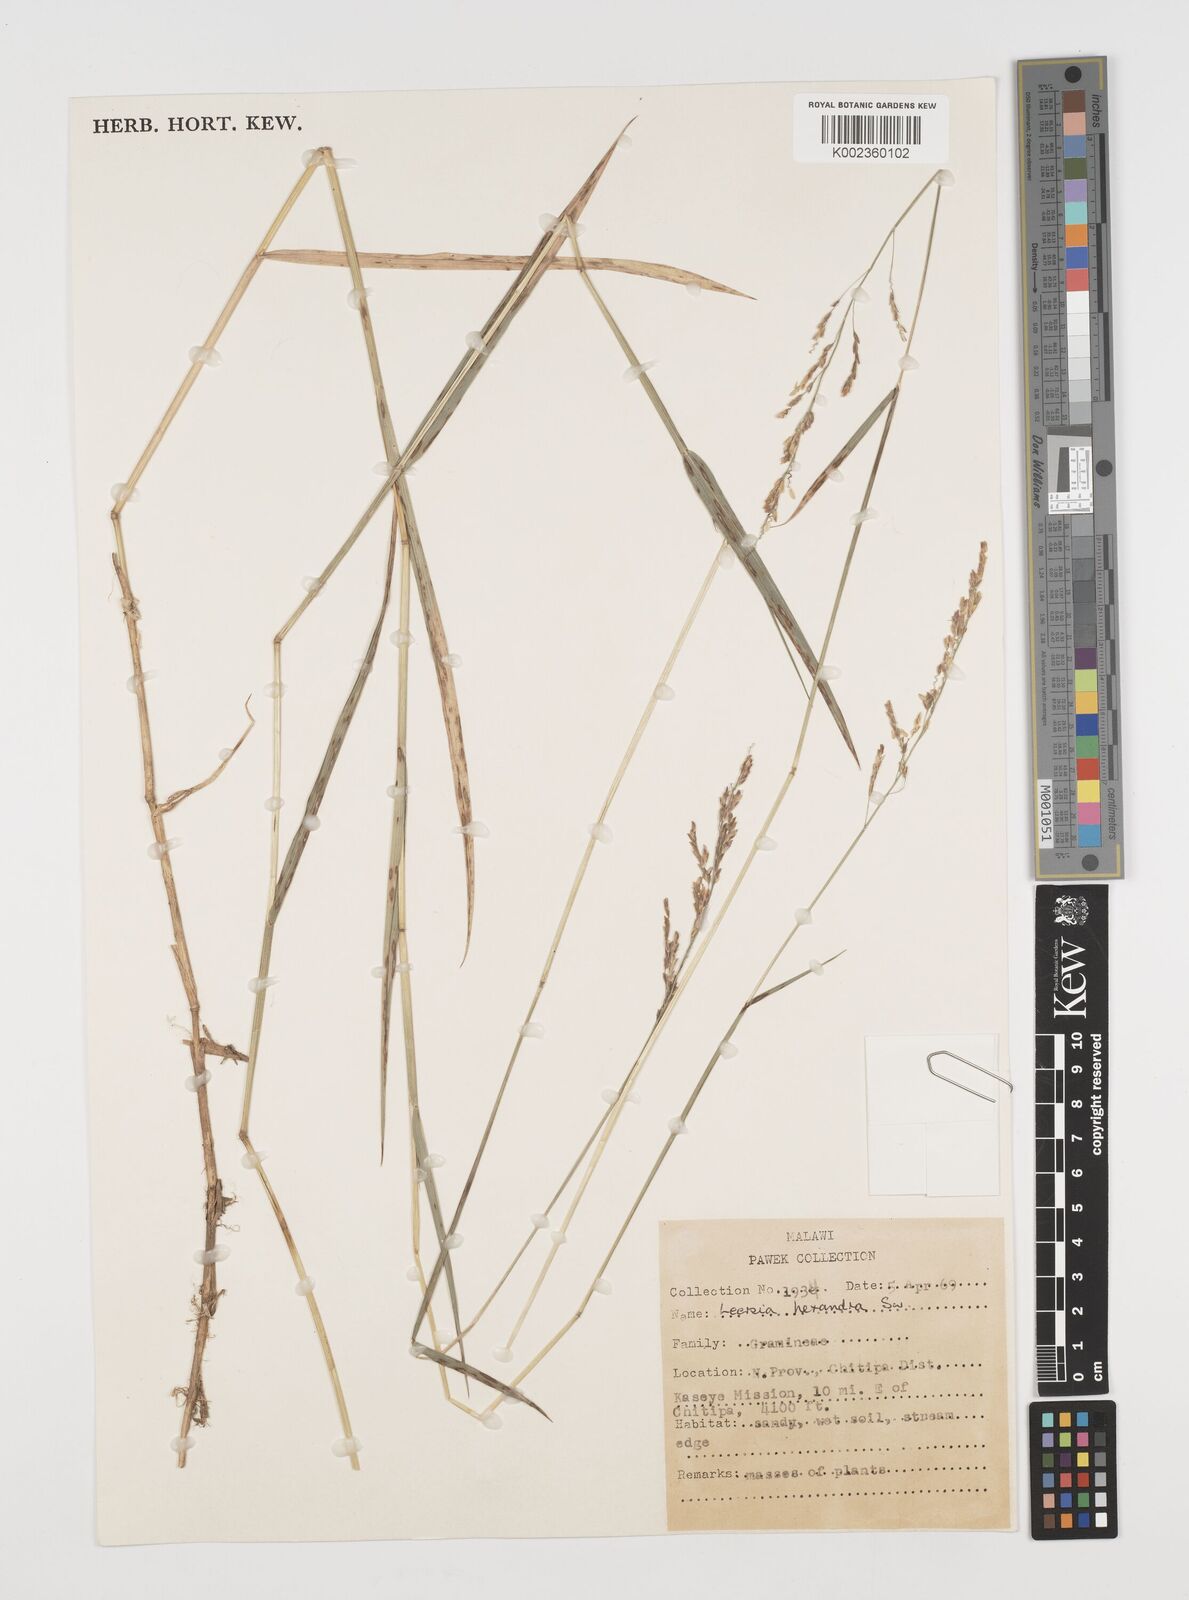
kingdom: Plantae
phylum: Tracheophyta
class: Liliopsida
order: Poales
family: Poaceae
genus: Leersia
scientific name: Leersia hexandra
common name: Southern cut grass
